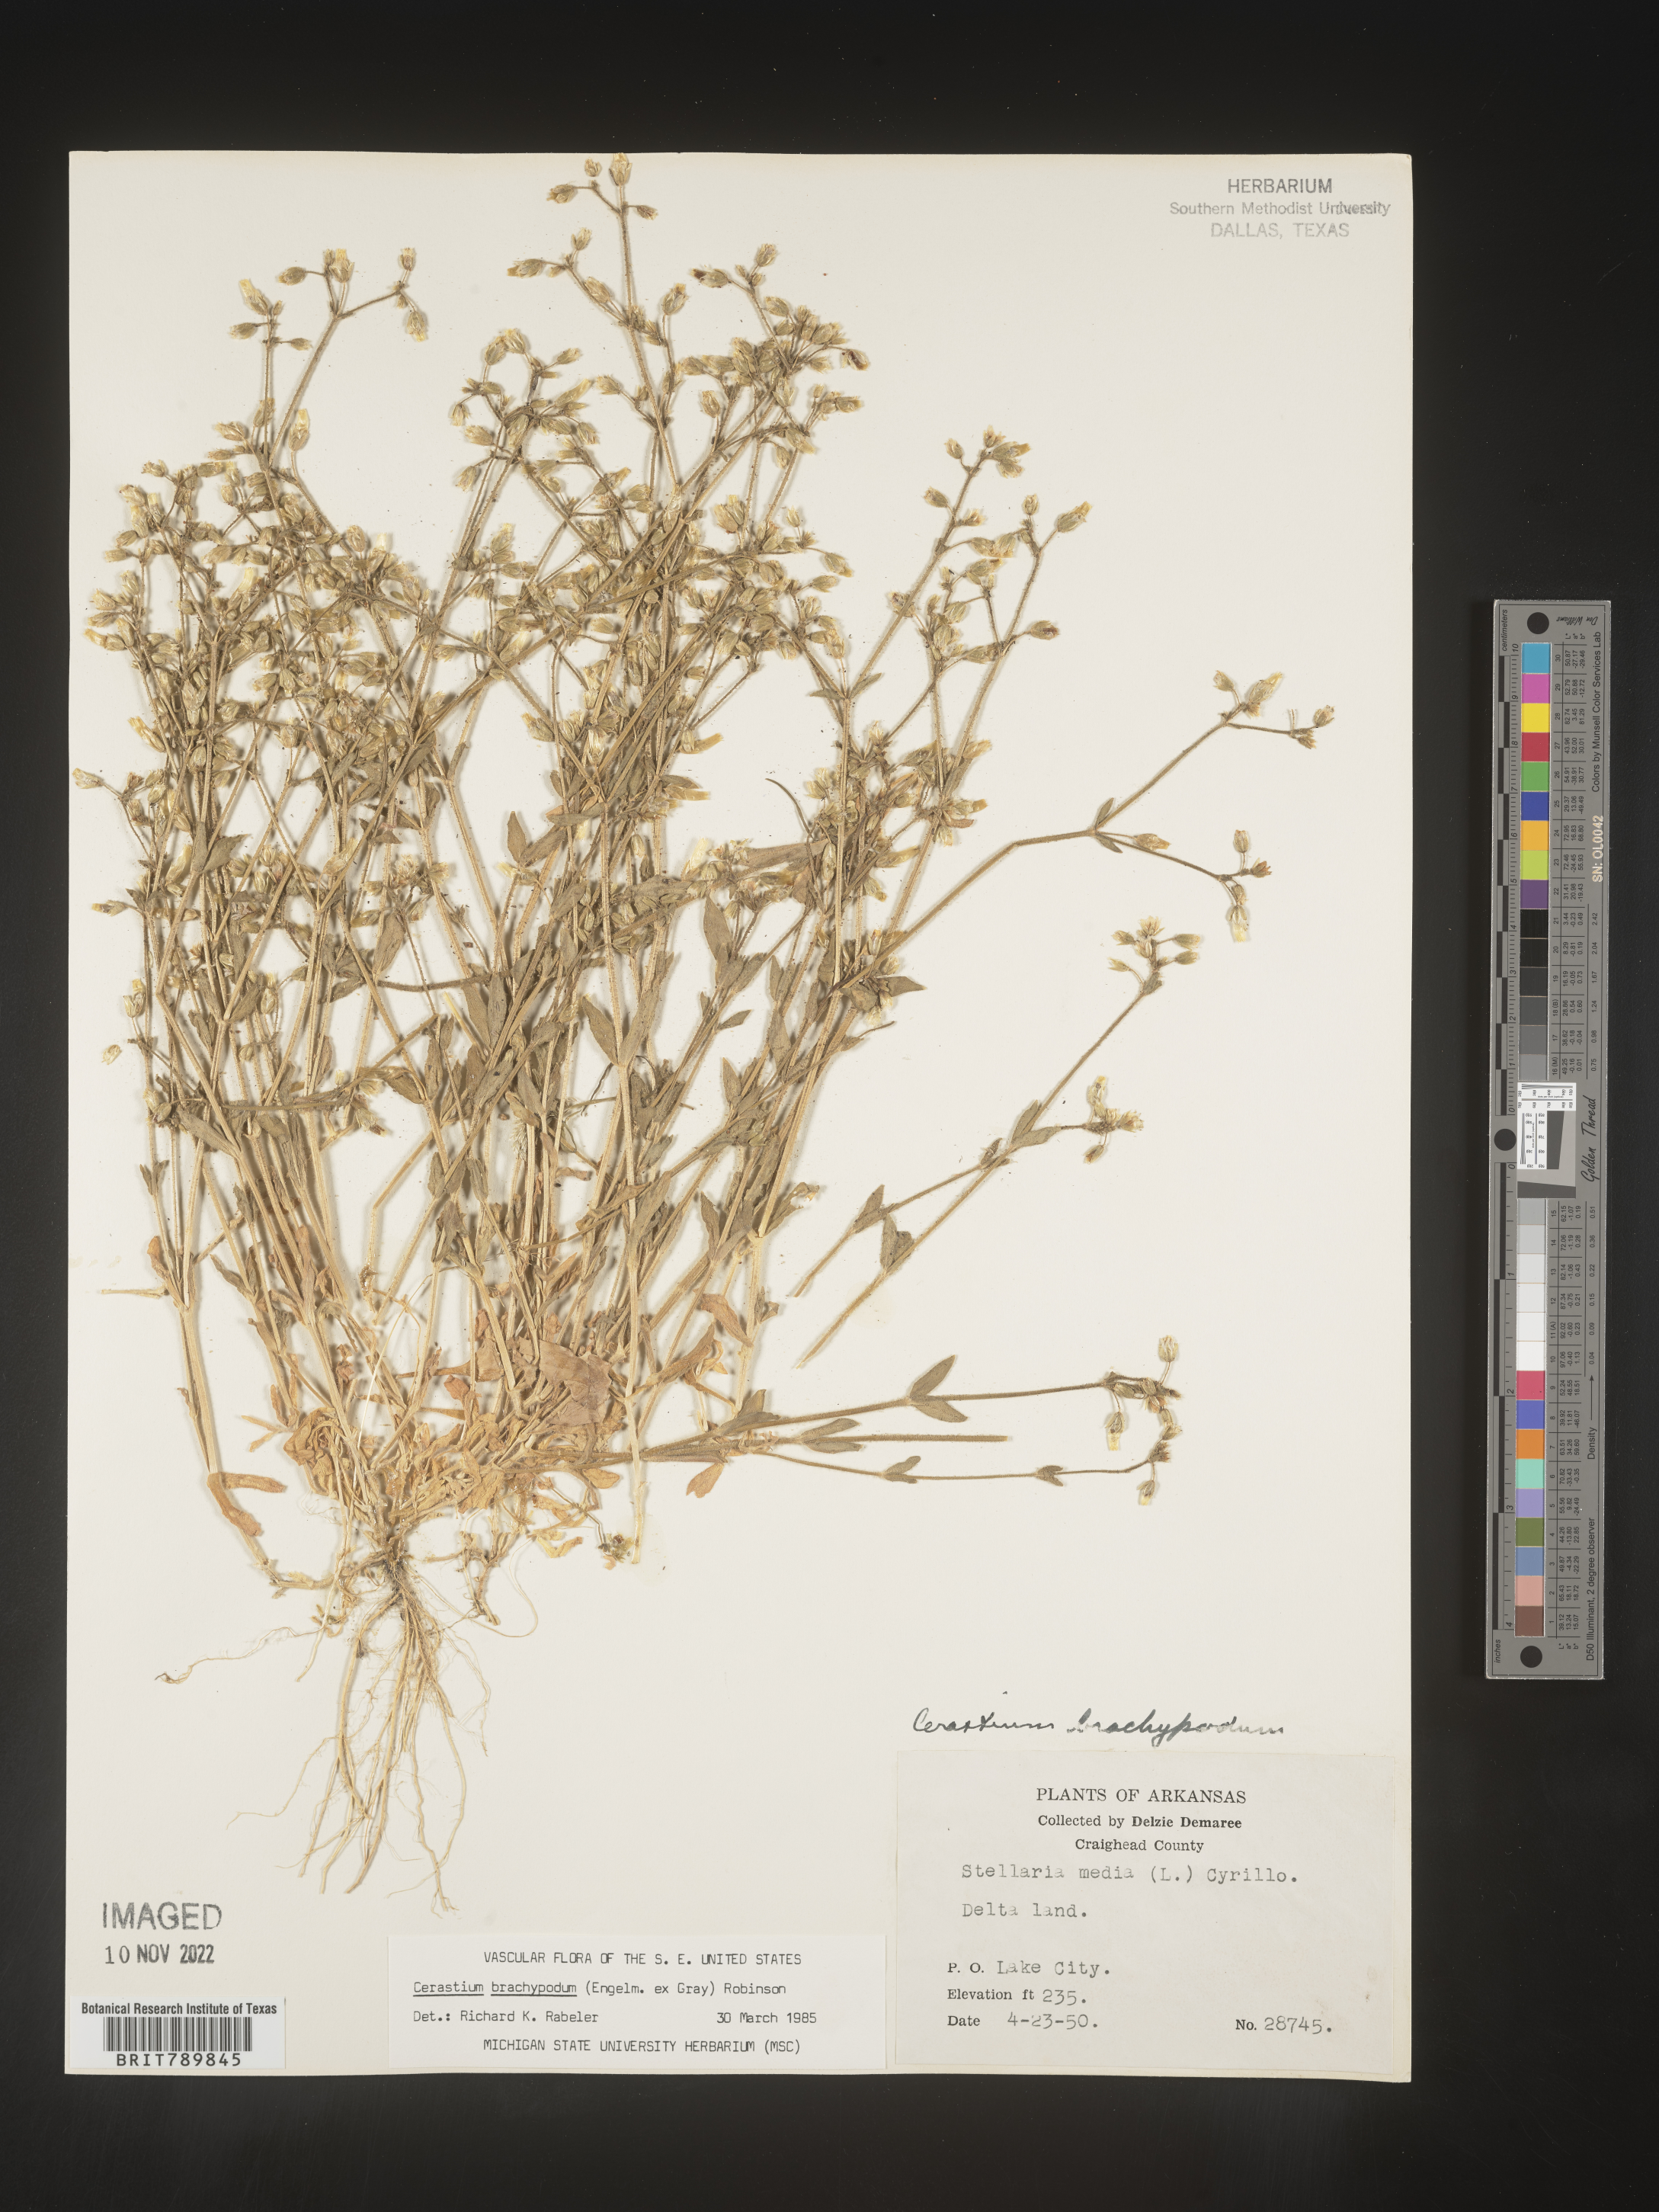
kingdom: Plantae
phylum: Tracheophyta
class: Magnoliopsida
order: Caryophyllales
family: Caryophyllaceae
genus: Cerastium
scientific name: Cerastium brachypodum
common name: Short-pedicelled nodding chickweed
